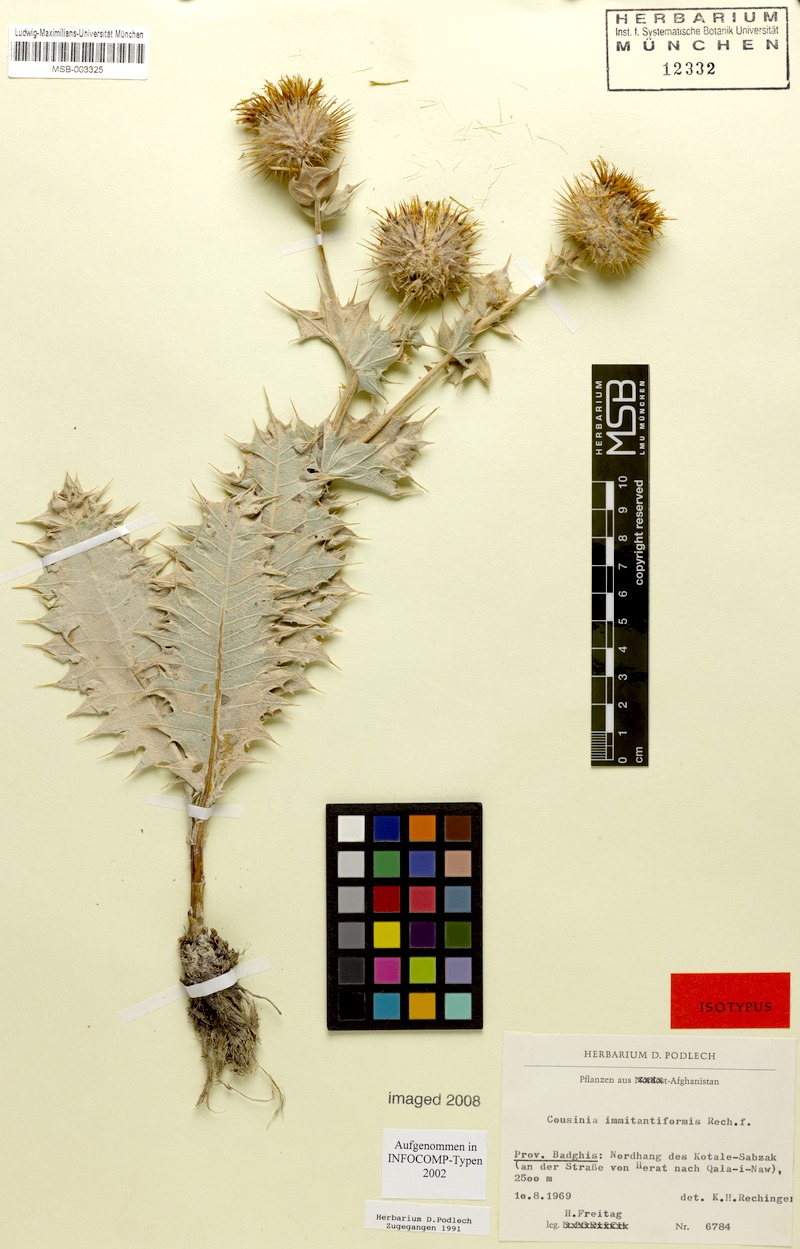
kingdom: Plantae
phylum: Tracheophyta
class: Magnoliopsida
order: Asterales
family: Asteraceae
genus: Cousinia
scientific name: Cousinia immitantiformis
